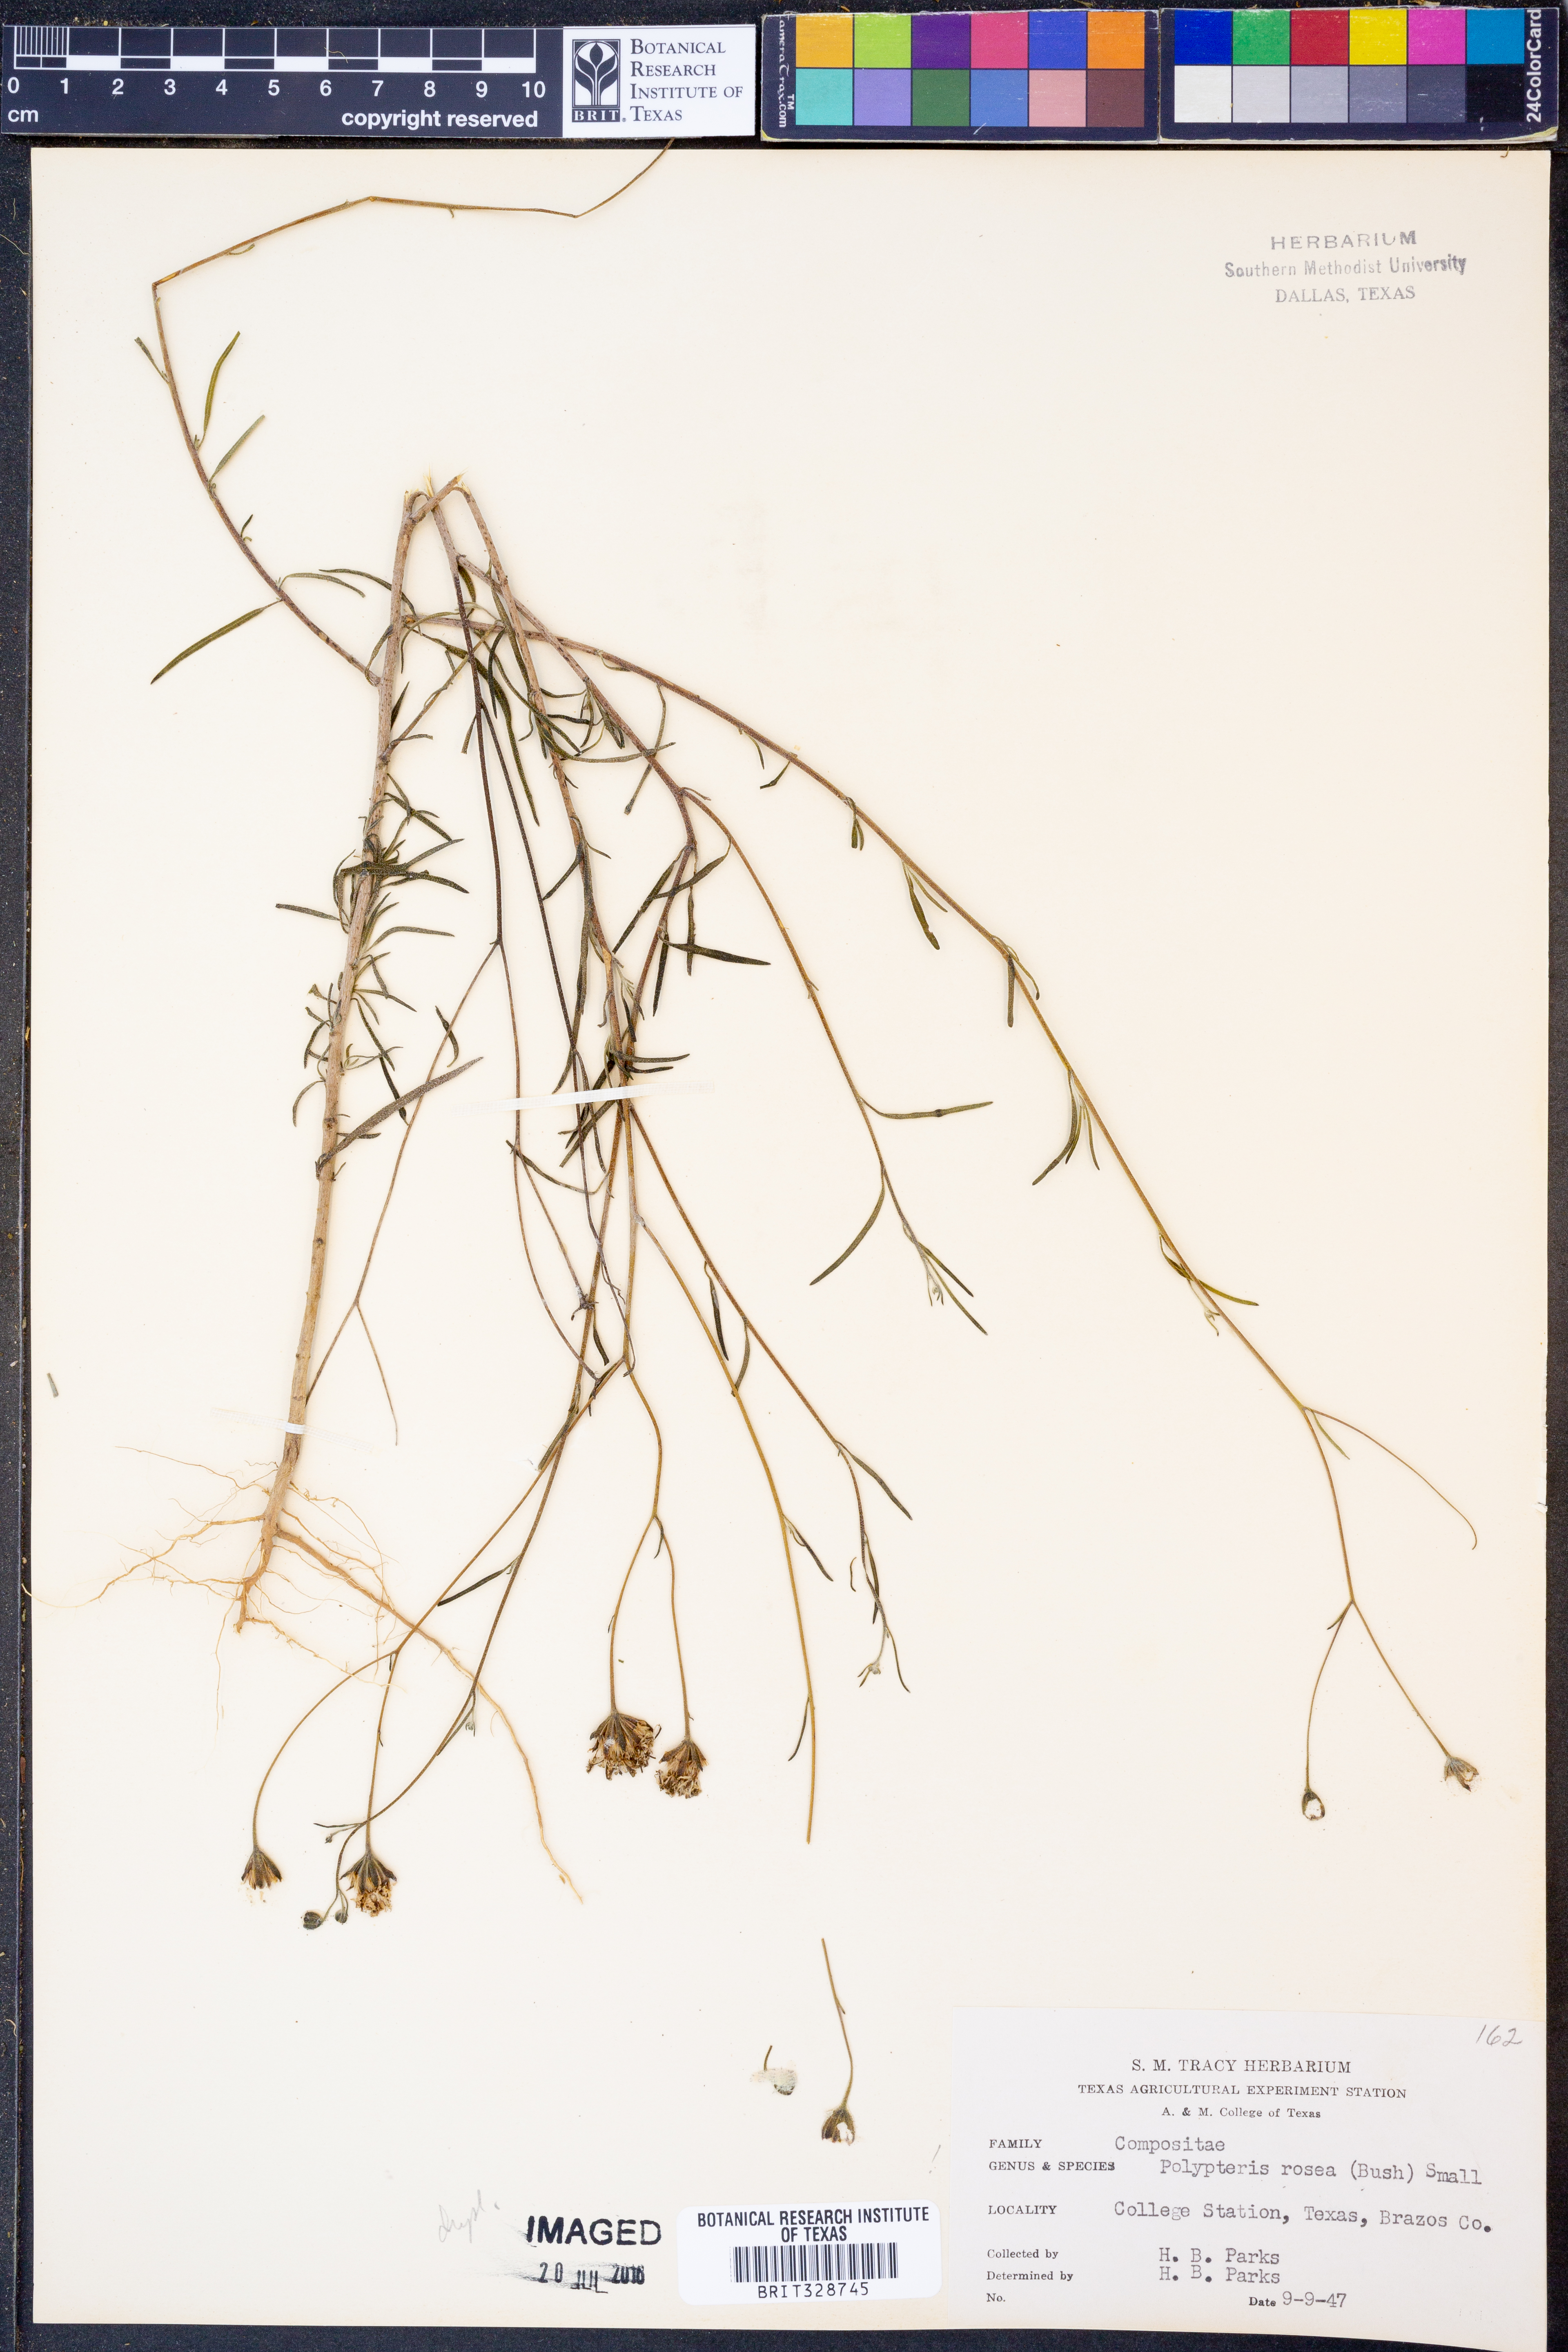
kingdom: Plantae
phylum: Tracheophyta
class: Magnoliopsida
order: Asterales
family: Asteraceae
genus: Palafoxia
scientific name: Palafoxia rosea
